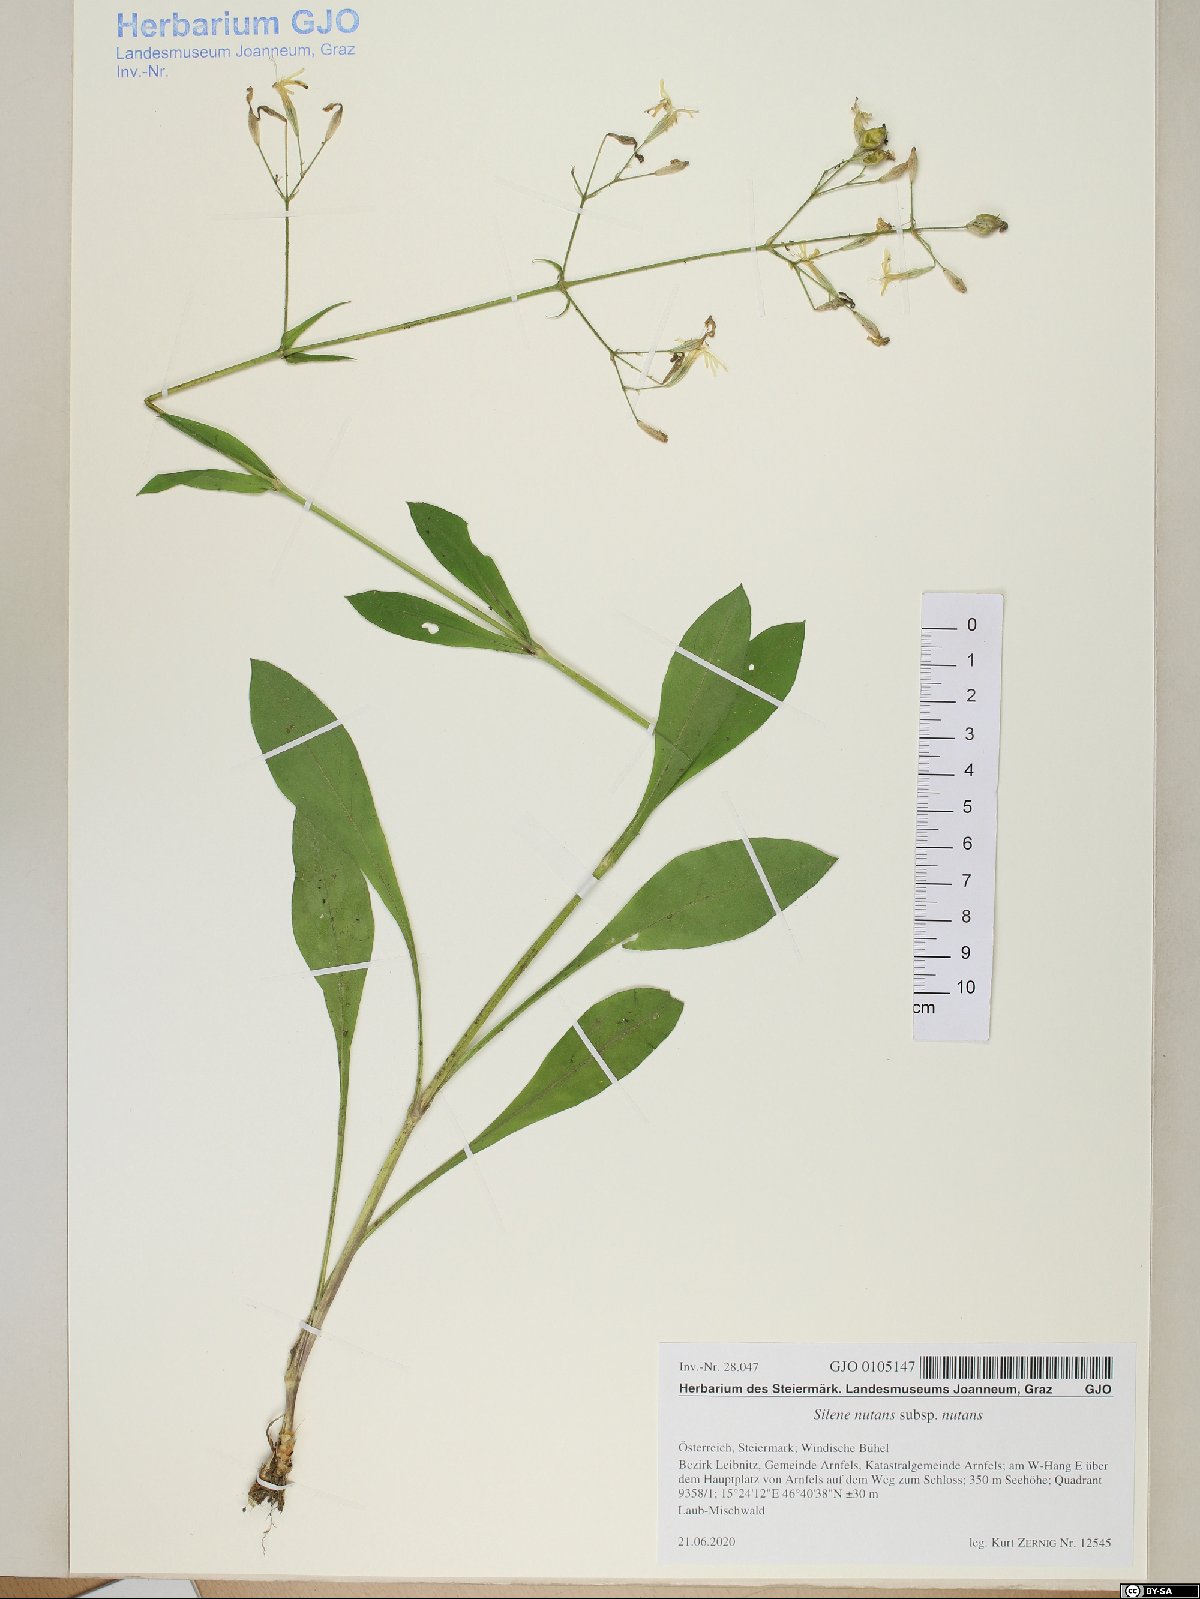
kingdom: Plantae
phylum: Tracheophyta
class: Magnoliopsida
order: Caryophyllales
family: Caryophyllaceae
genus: Silene
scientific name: Silene nutans
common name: Nottingham catchfly
